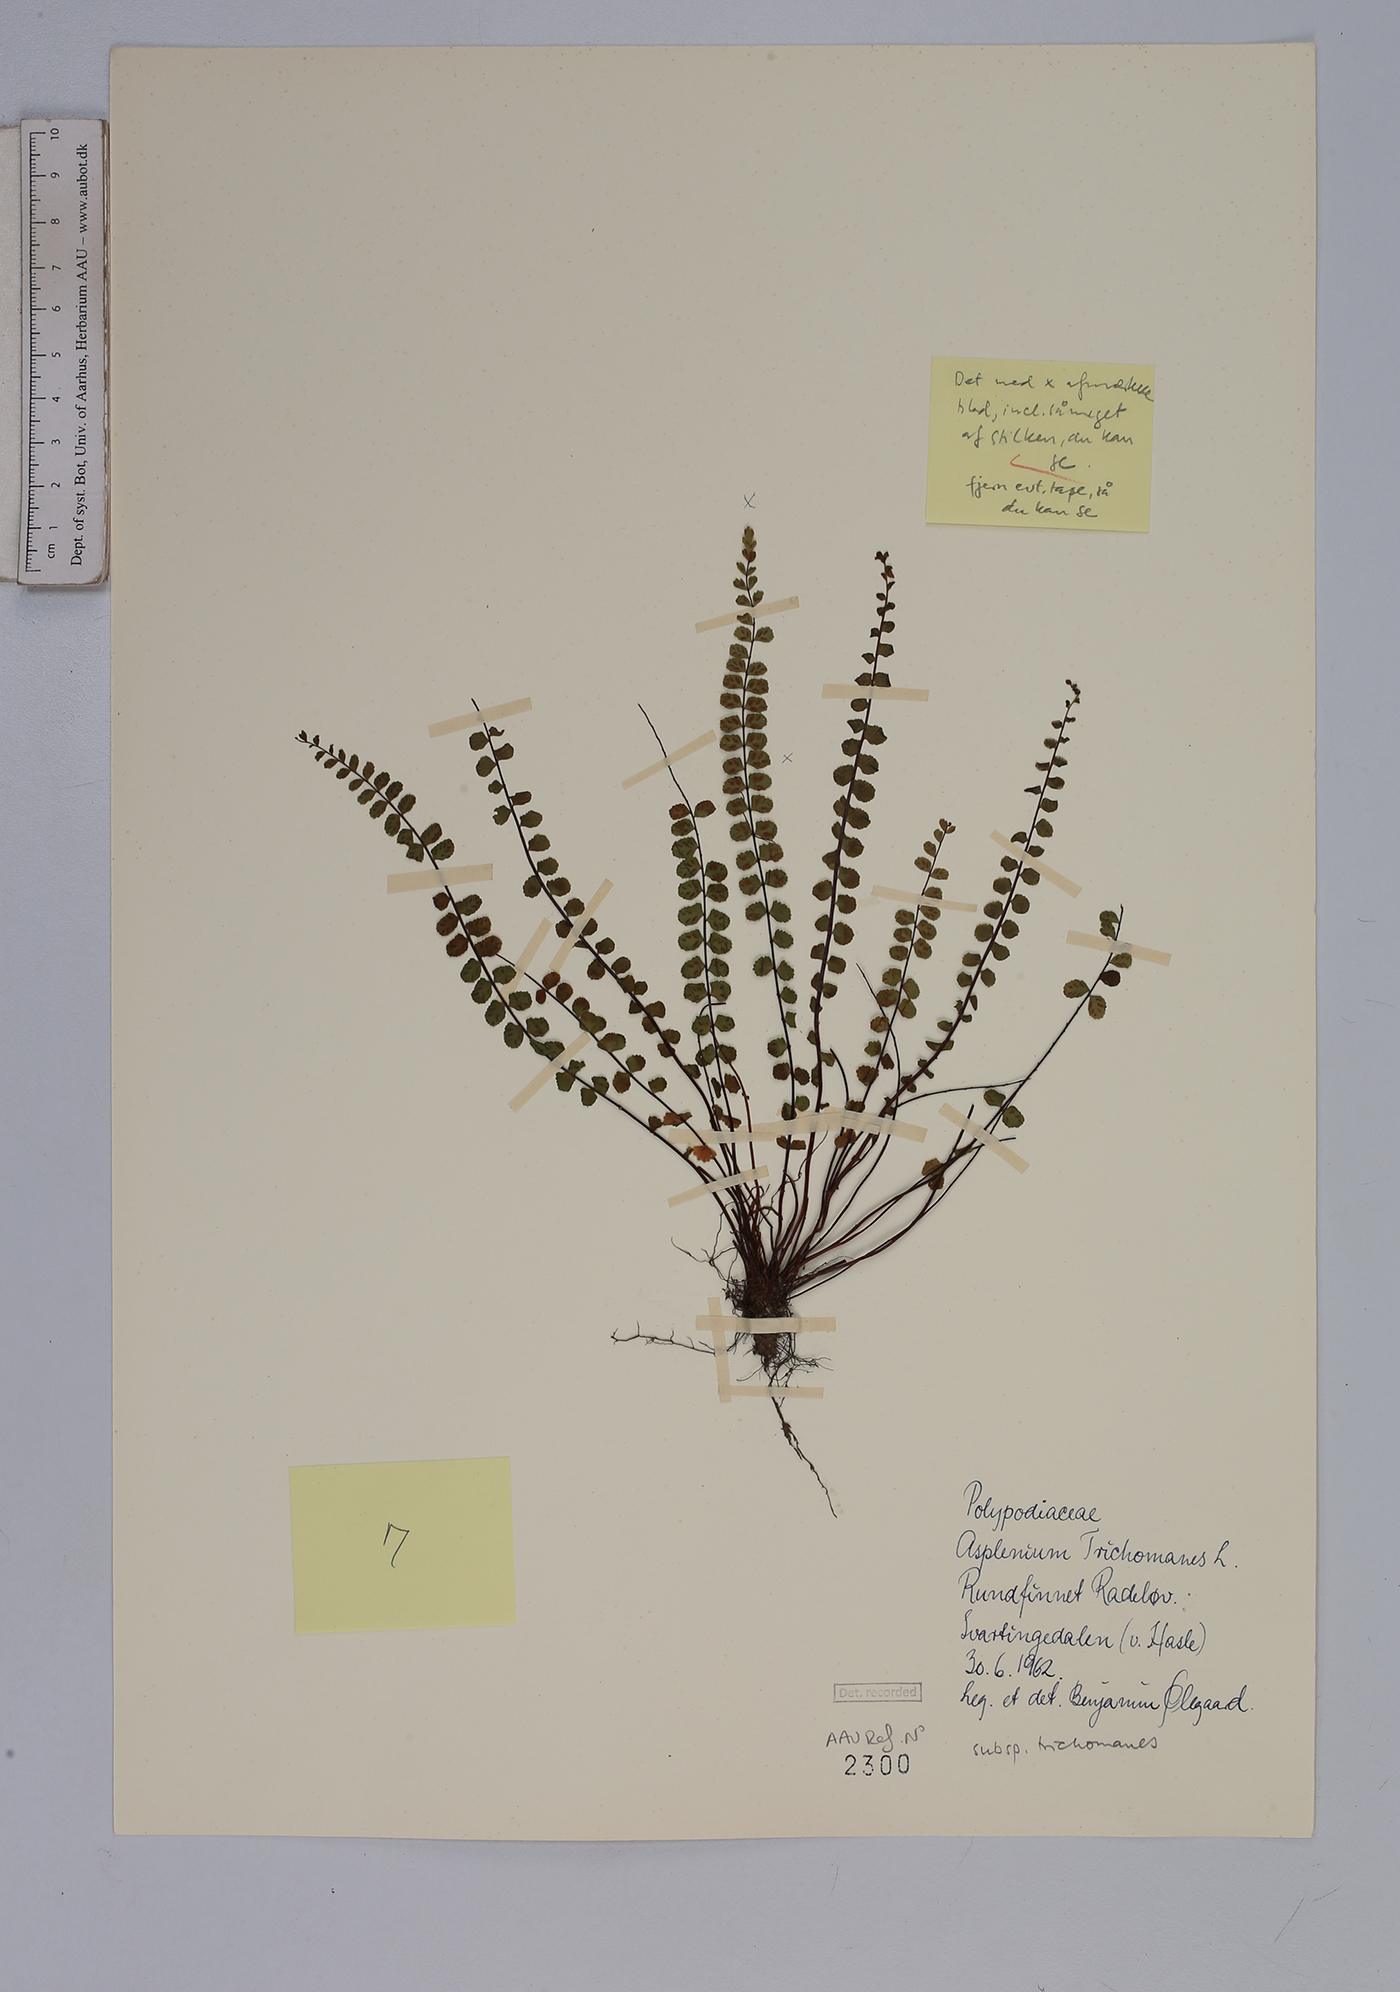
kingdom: Plantae
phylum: Tracheophyta
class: Polypodiopsida
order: Polypodiales
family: Aspleniaceae
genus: Asplenium
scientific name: Asplenium trichomanes
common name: Maidenhair spleenwort
